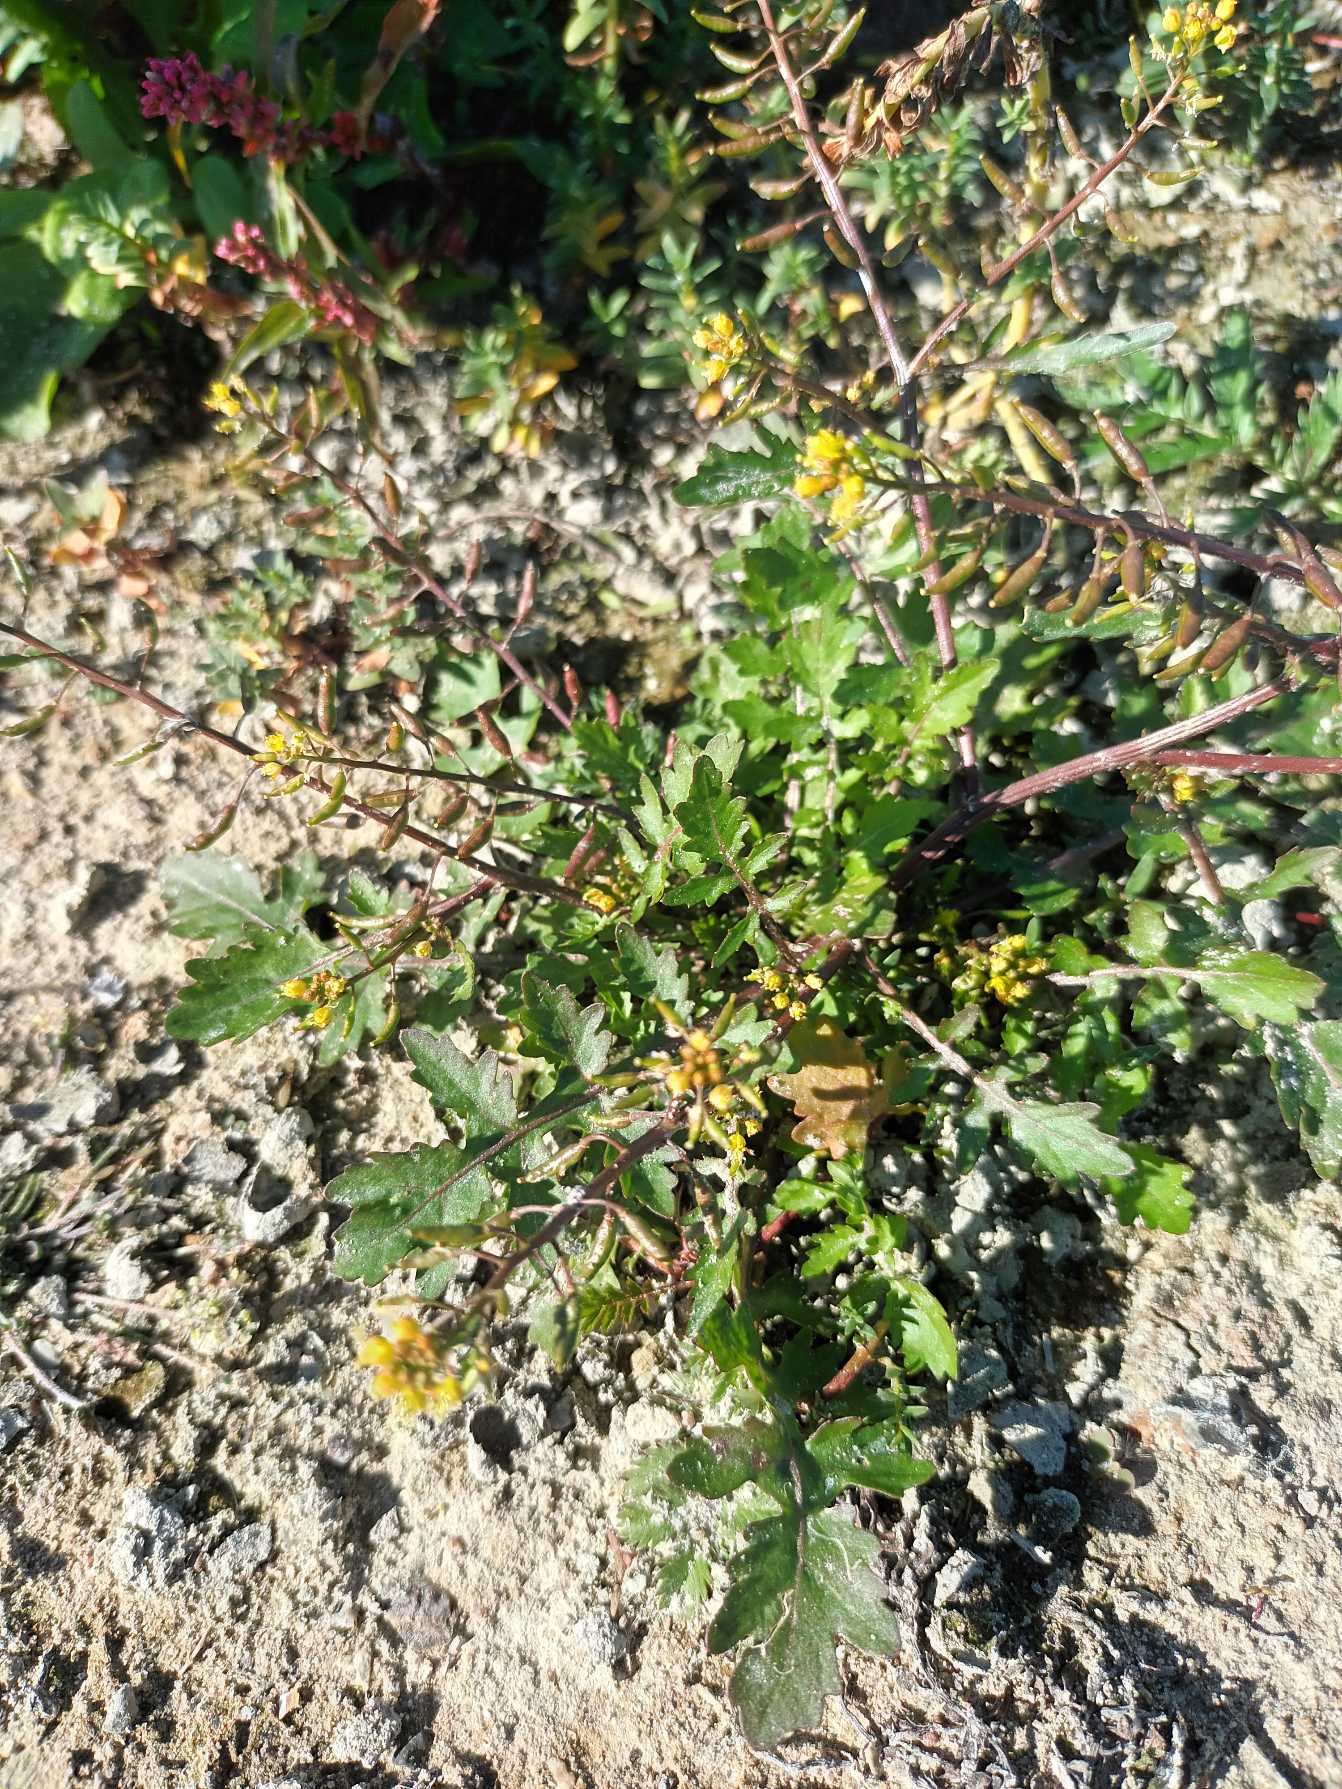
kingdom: Plantae
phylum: Tracheophyta
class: Magnoliopsida
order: Brassicales
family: Brassicaceae
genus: Rorippa
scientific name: Rorippa palustris
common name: Kær-guldkarse
